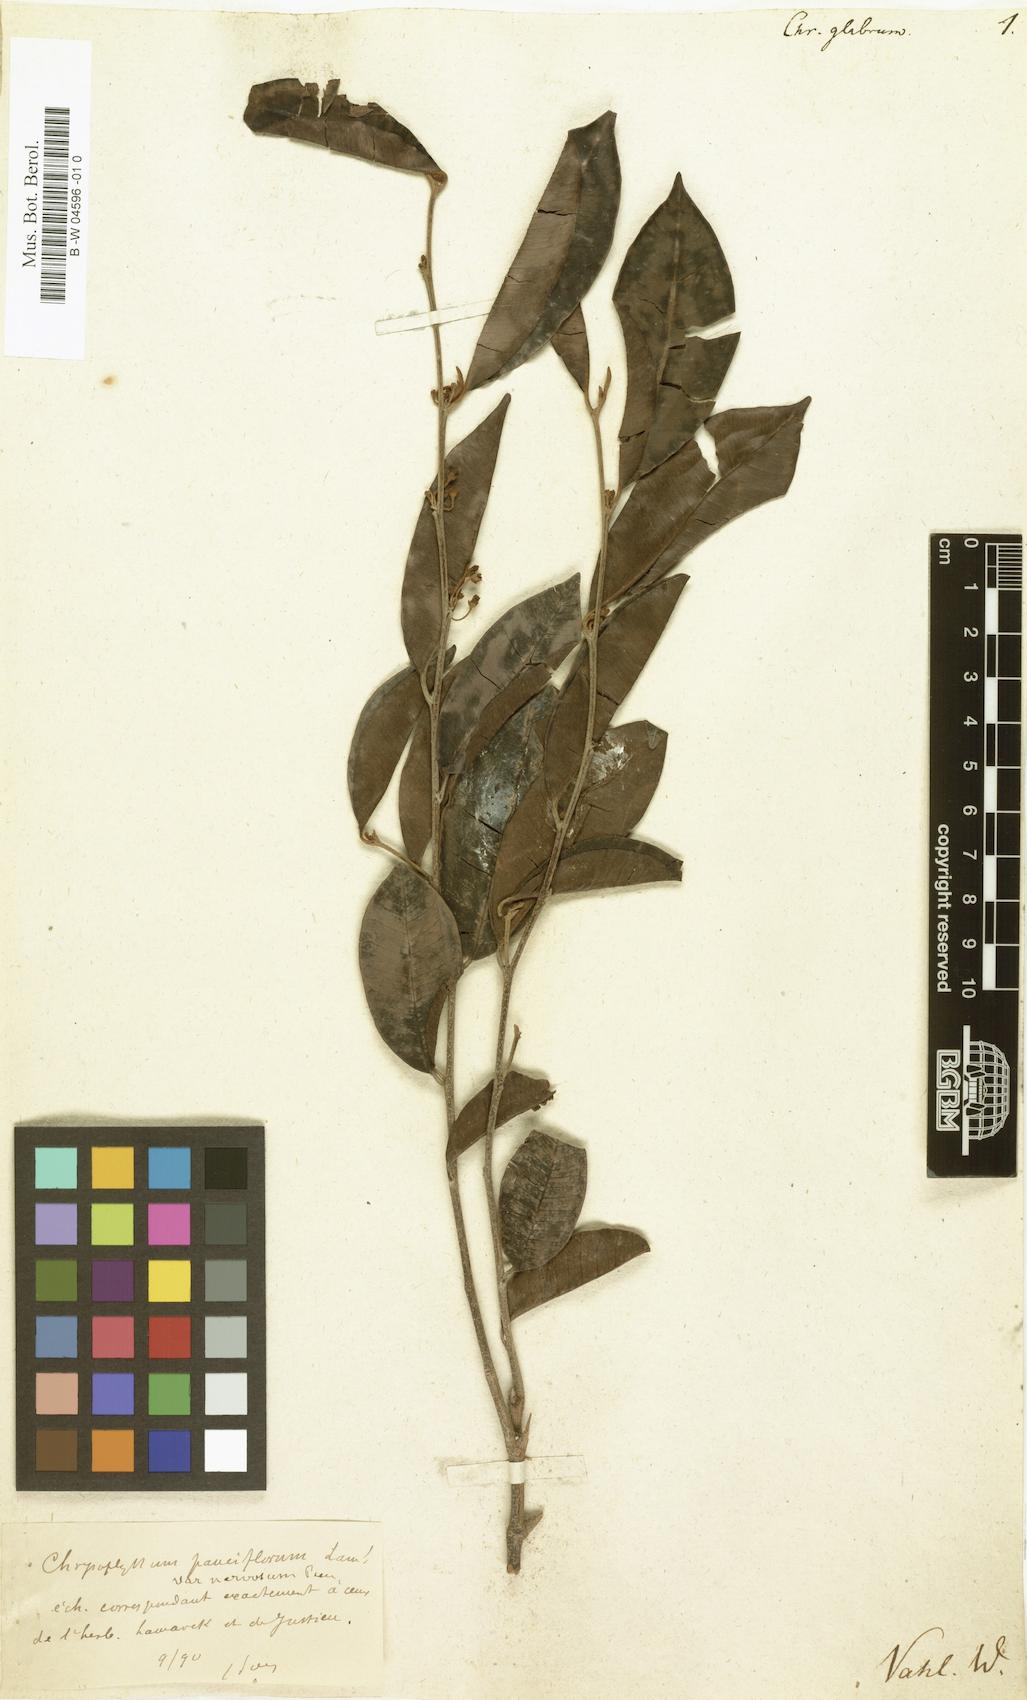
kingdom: Plantae
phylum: Tracheophyta
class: Magnoliopsida
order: Ericales
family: Sapotaceae
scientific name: Sapotaceae
